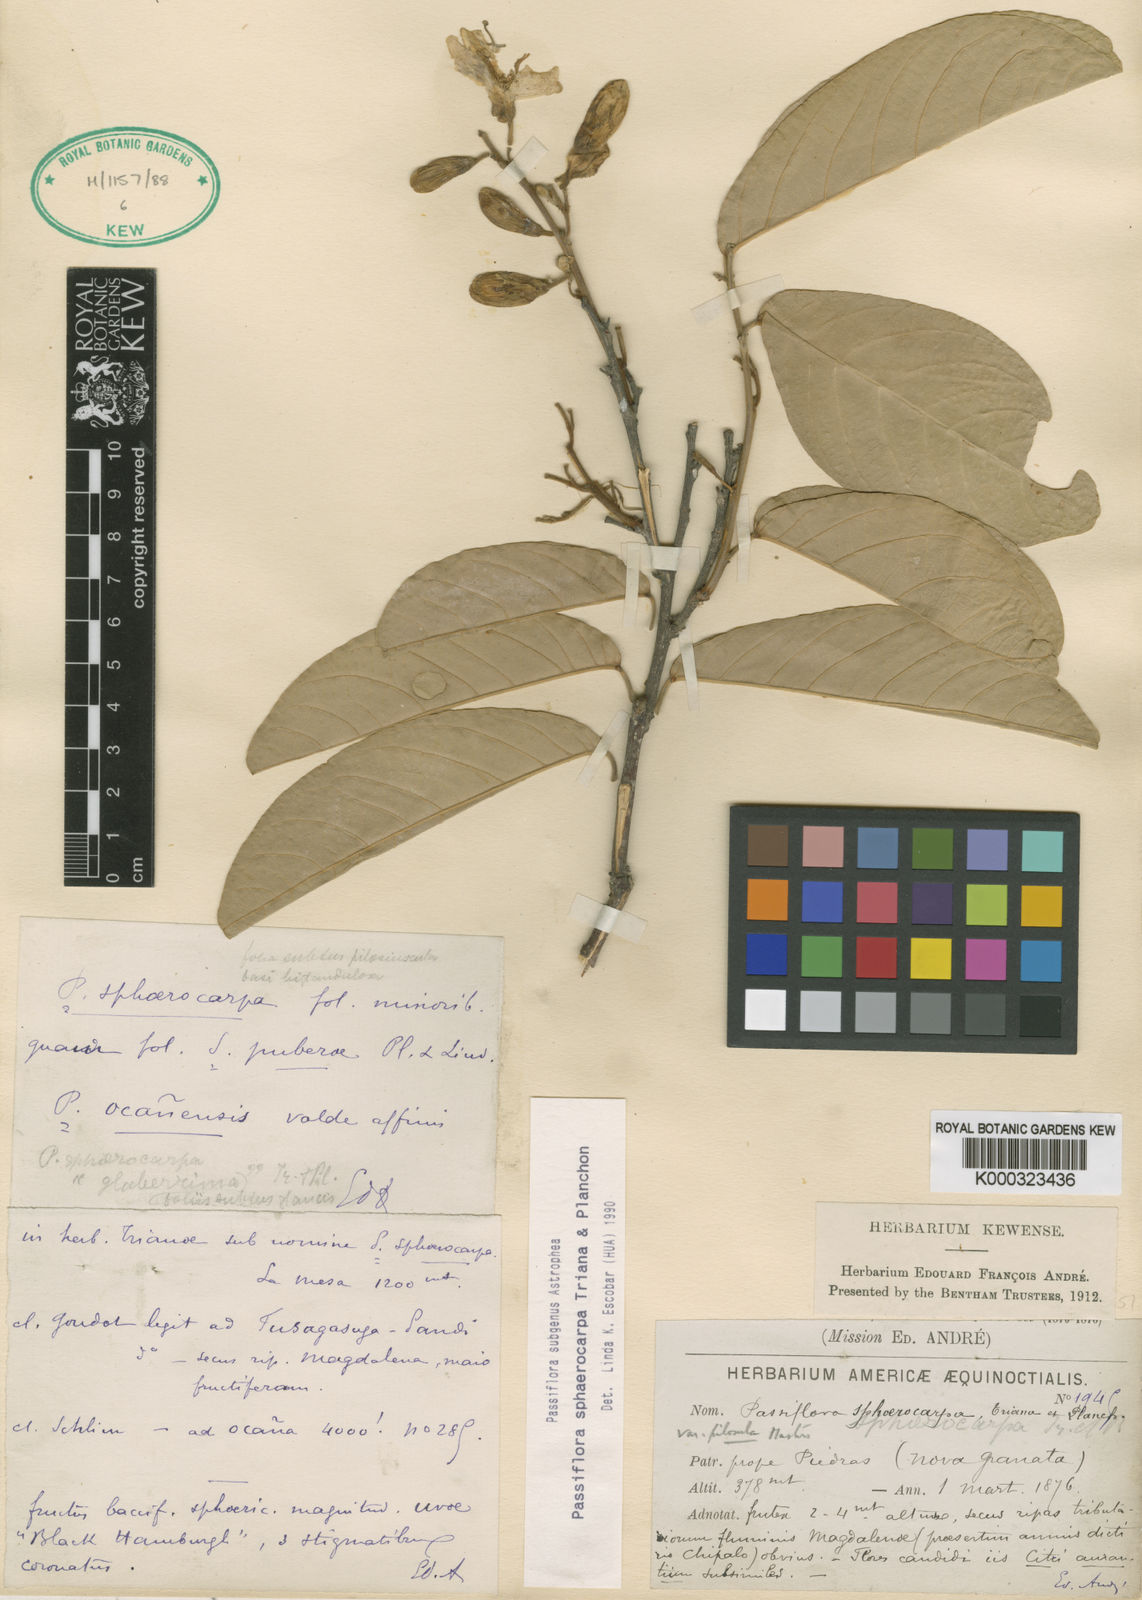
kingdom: Plantae
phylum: Tracheophyta
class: Magnoliopsida
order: Malpighiales
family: Passifloraceae
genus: Passiflora
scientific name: Passiflora sphaerocarpa
